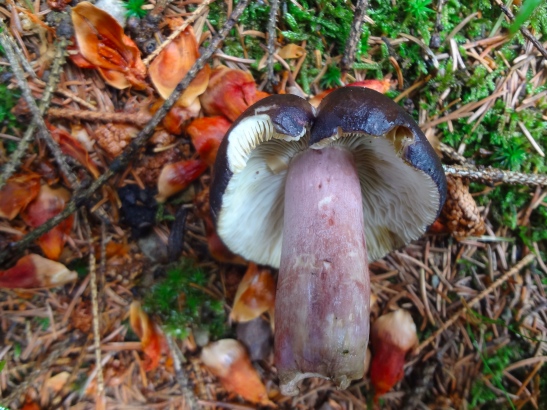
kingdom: Fungi
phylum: Basidiomycota
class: Agaricomycetes
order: Russulales
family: Russulaceae
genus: Russula
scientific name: Russula queletii
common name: Quélets skørhat
